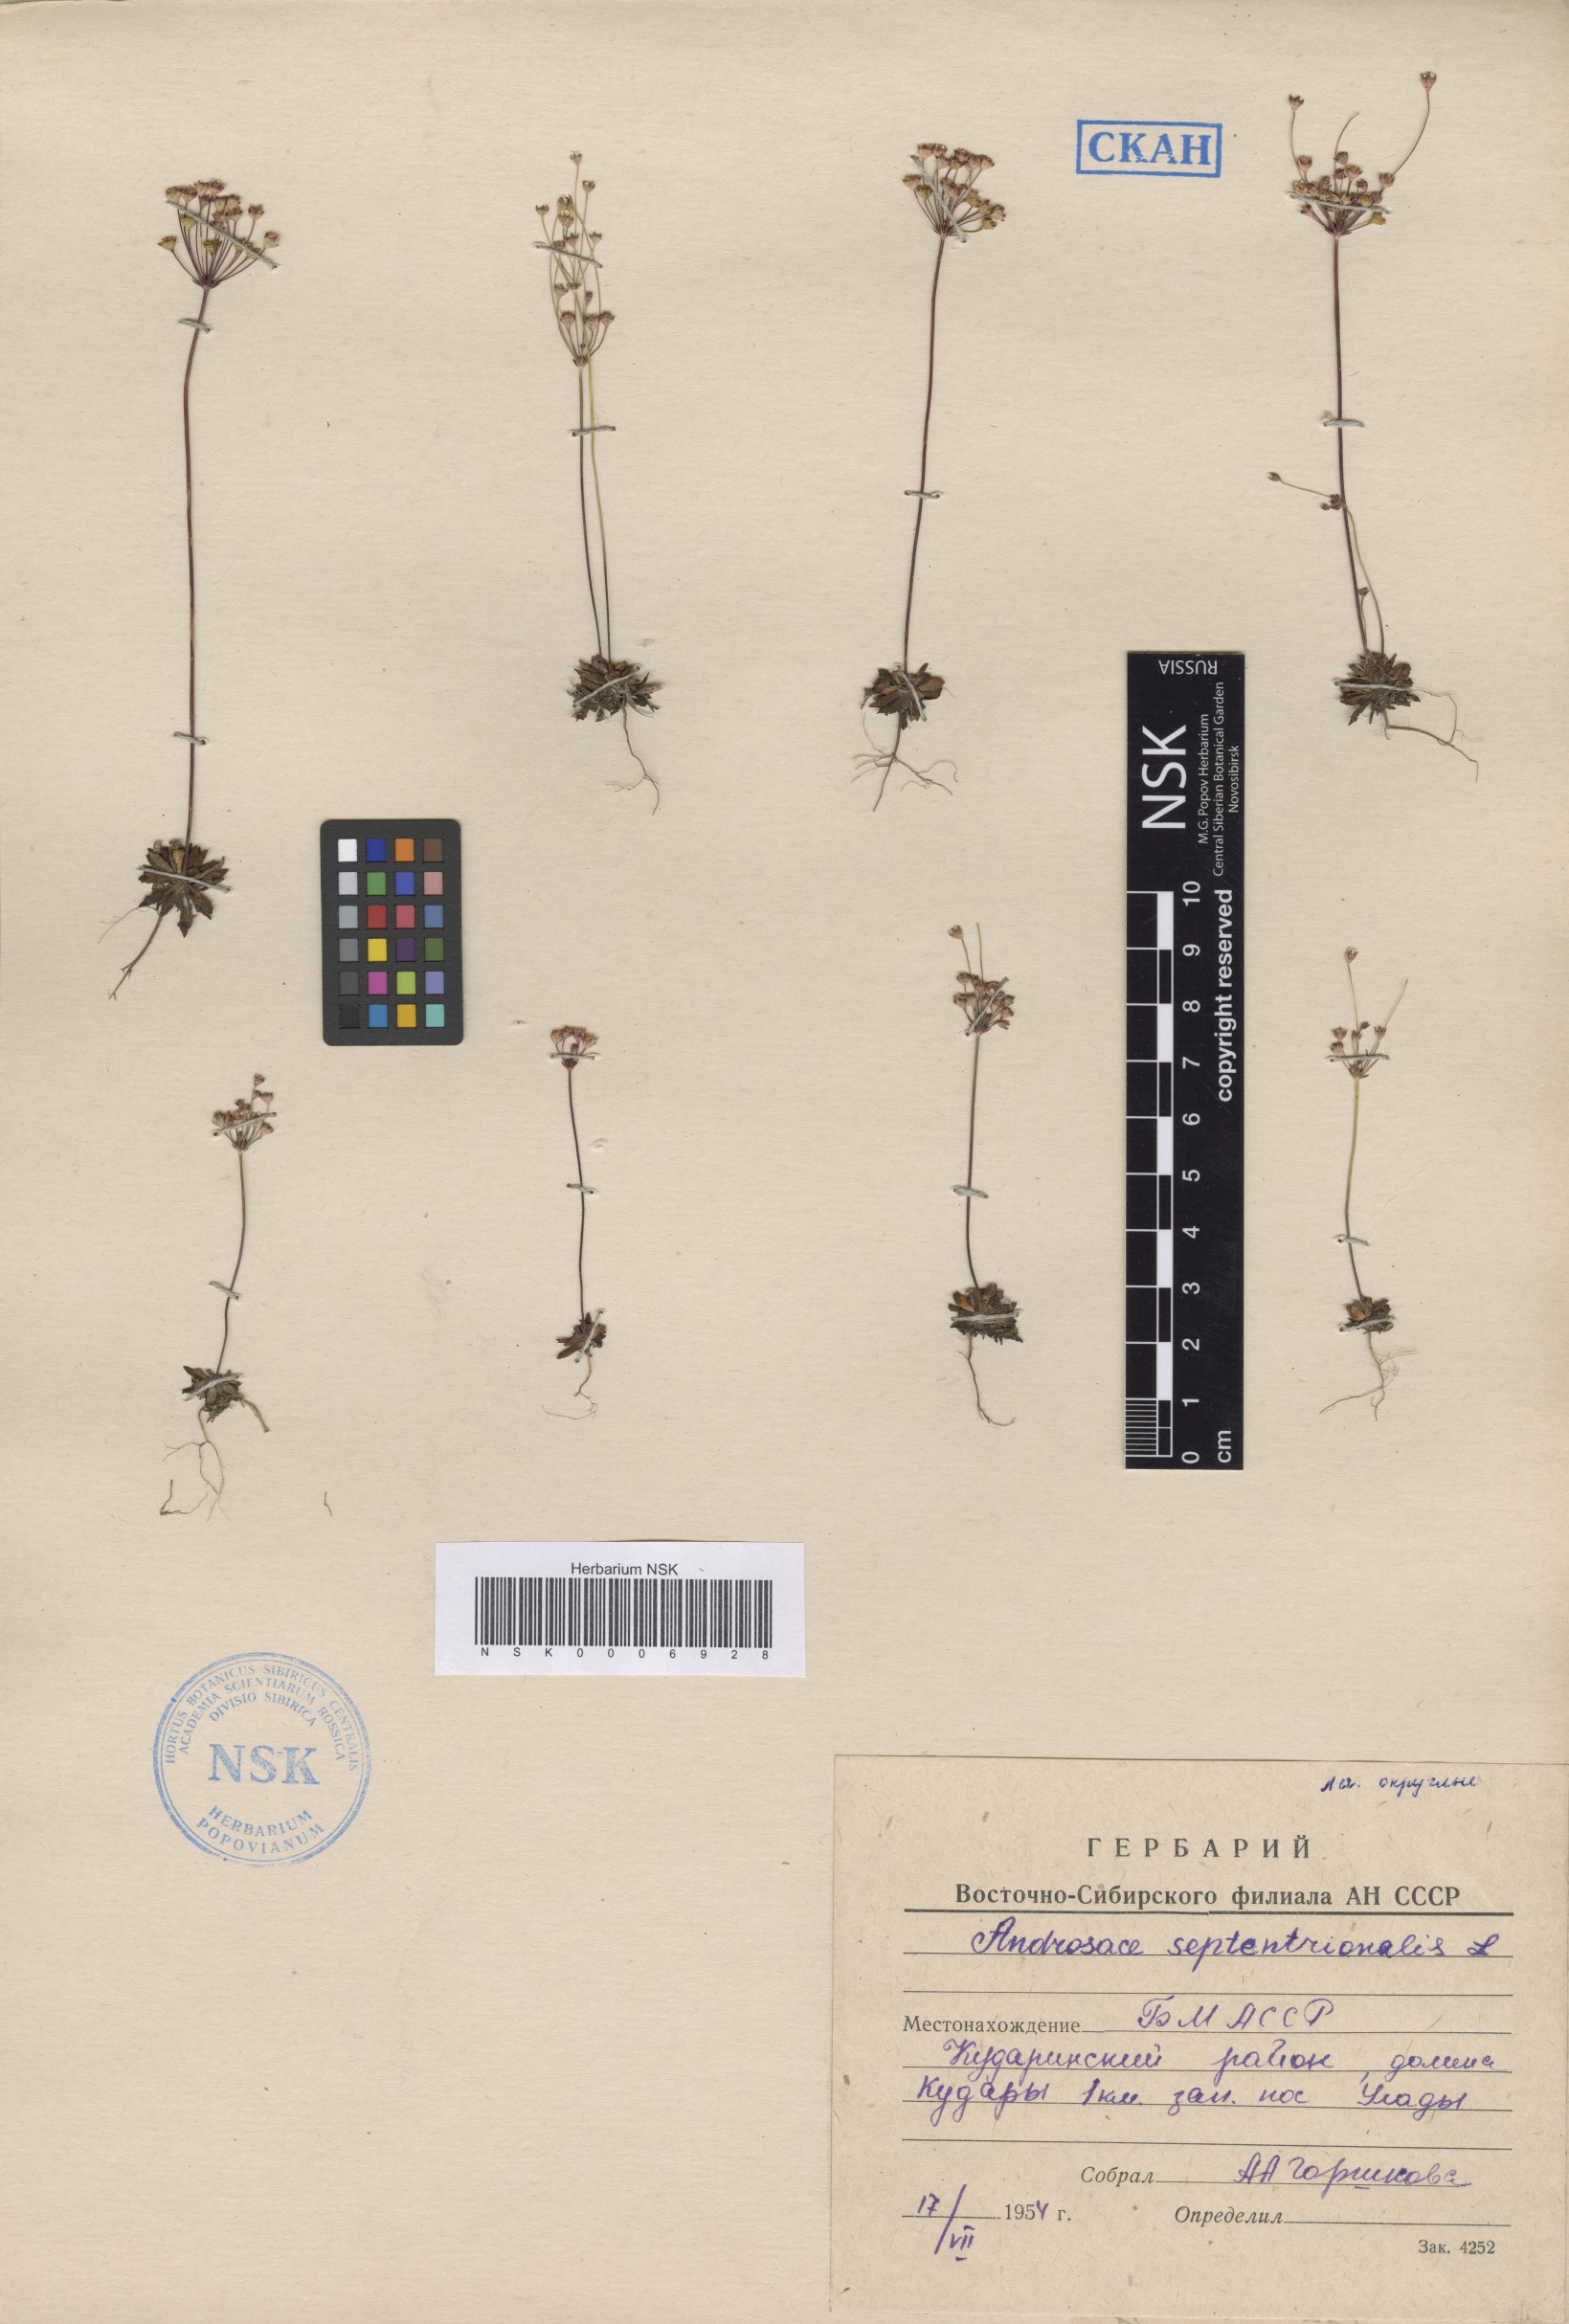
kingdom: Plantae
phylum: Tracheophyta
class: Magnoliopsida
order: Ericales
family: Primulaceae
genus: Androsace
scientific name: Androsace septentrionalis
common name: Hairy northern fairy-candelabra
